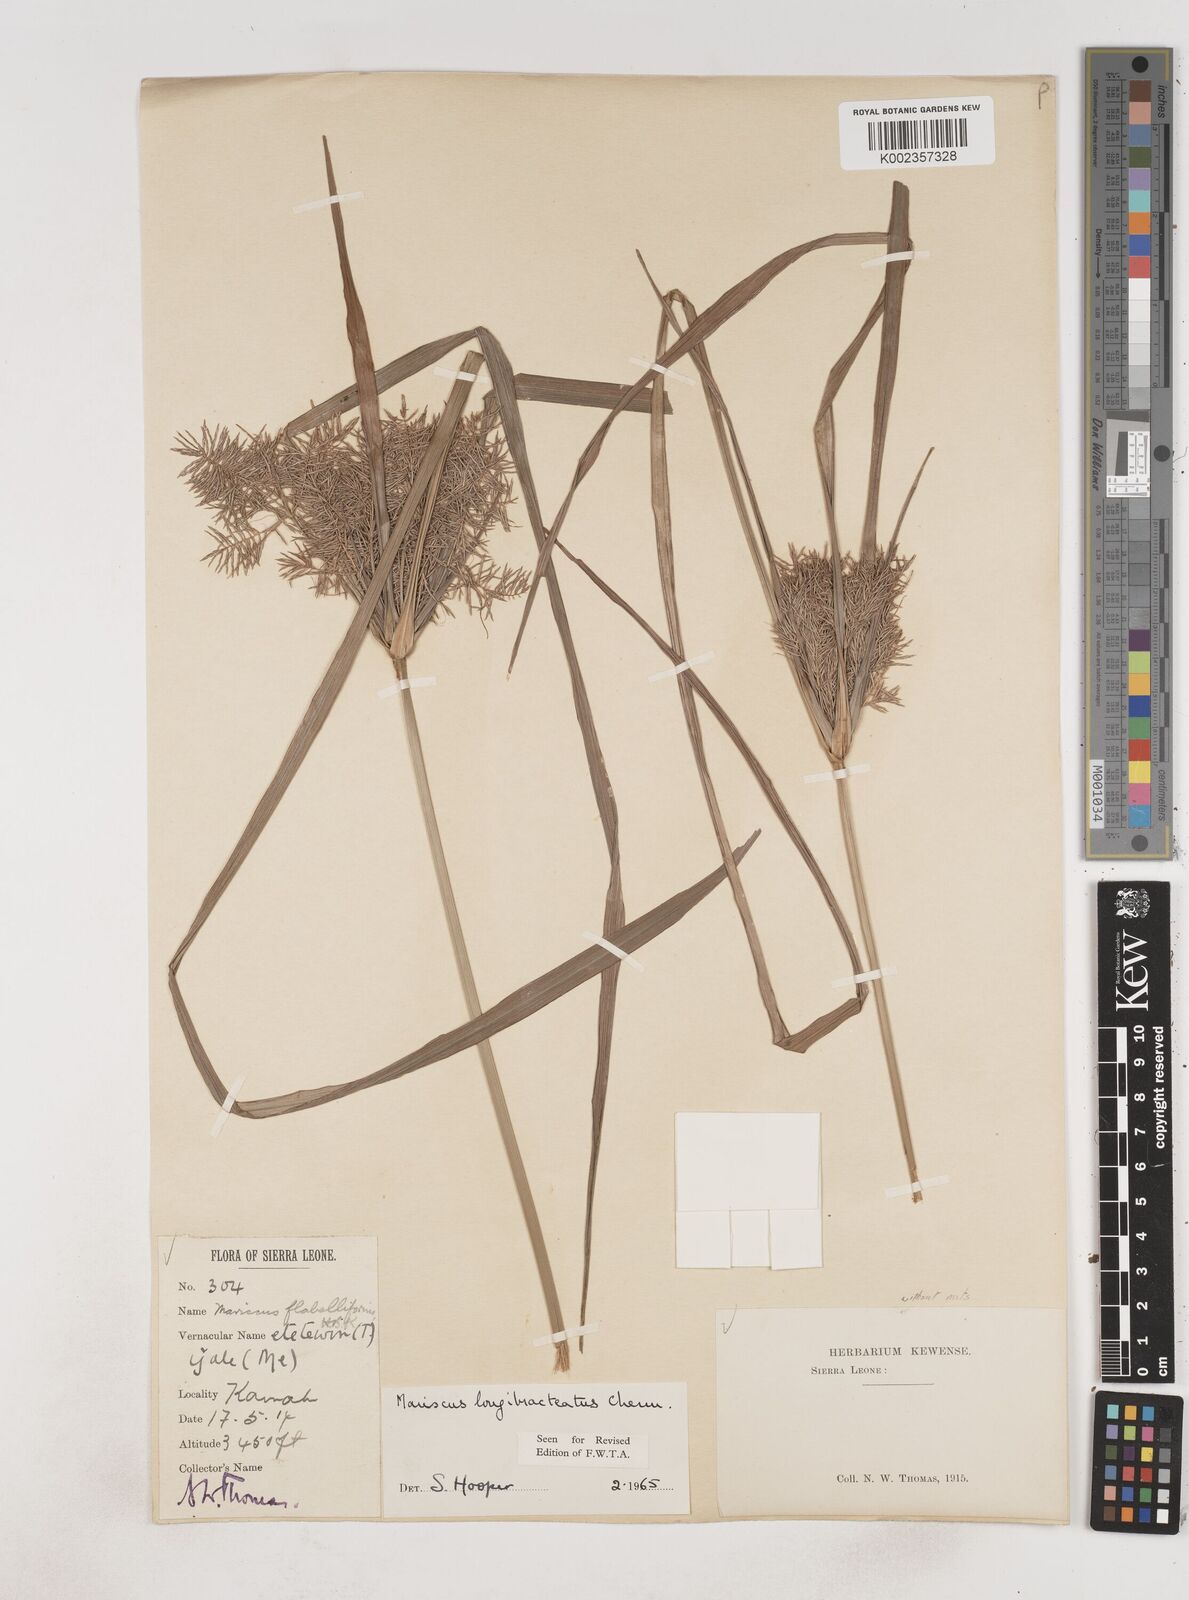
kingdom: Plantae
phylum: Tracheophyta
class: Liliopsida
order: Poales
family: Cyperaceae
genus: Cyperus
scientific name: Cyperus distans
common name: Slender cyperus
